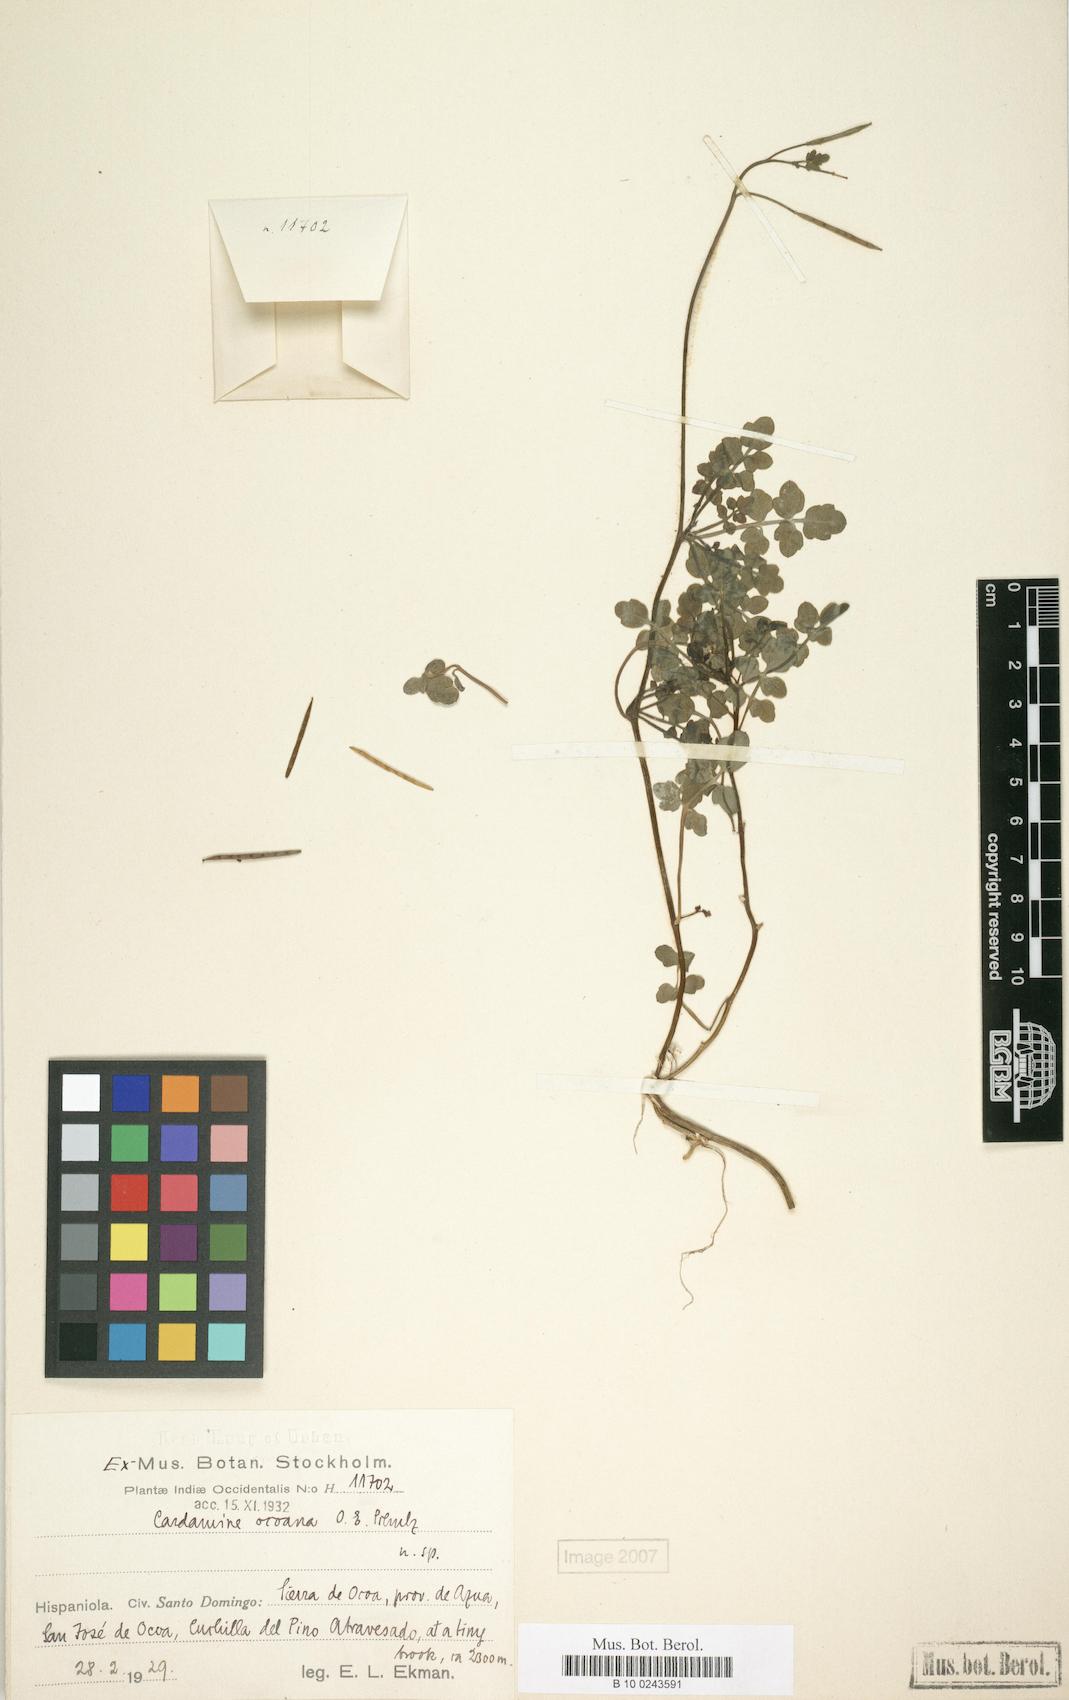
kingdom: Plantae
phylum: Tracheophyta
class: Magnoliopsida
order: Brassicales
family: Brassicaceae
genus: Cardamine
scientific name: Cardamine ocoana
